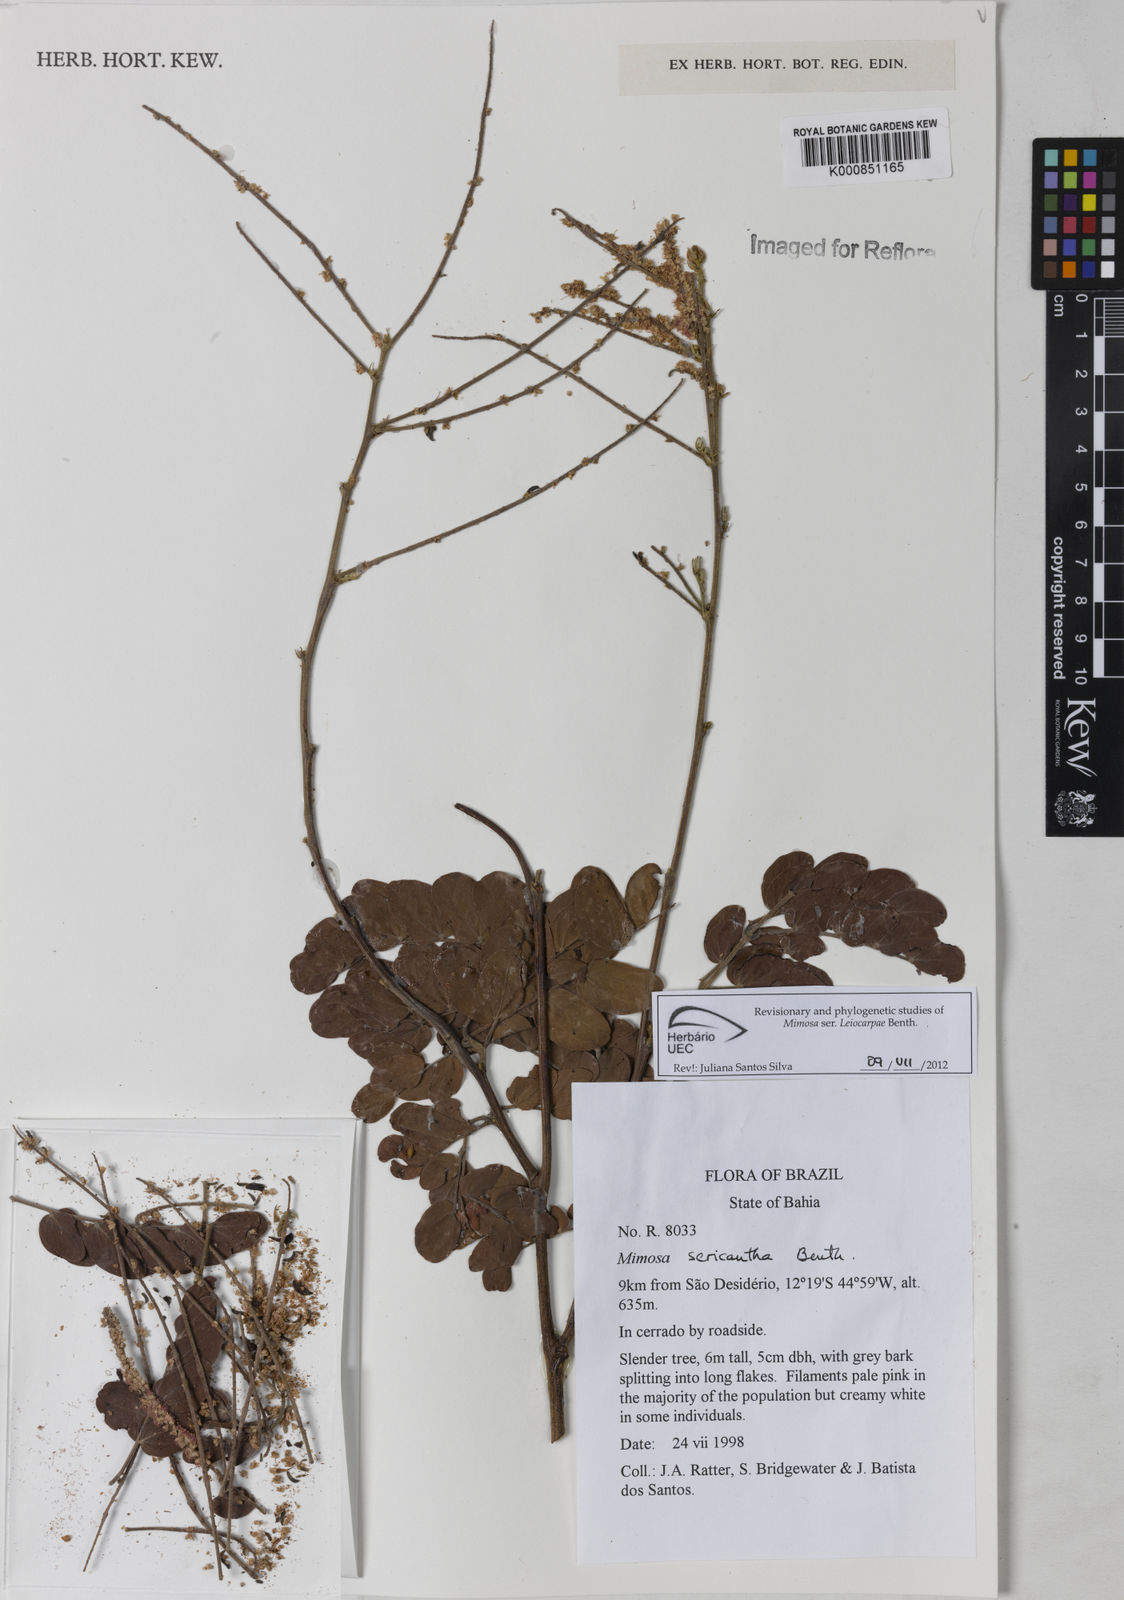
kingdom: Plantae
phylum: Tracheophyta
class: Magnoliopsida
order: Fabales
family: Fabaceae
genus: Mimosa
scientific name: Mimosa sericantha
